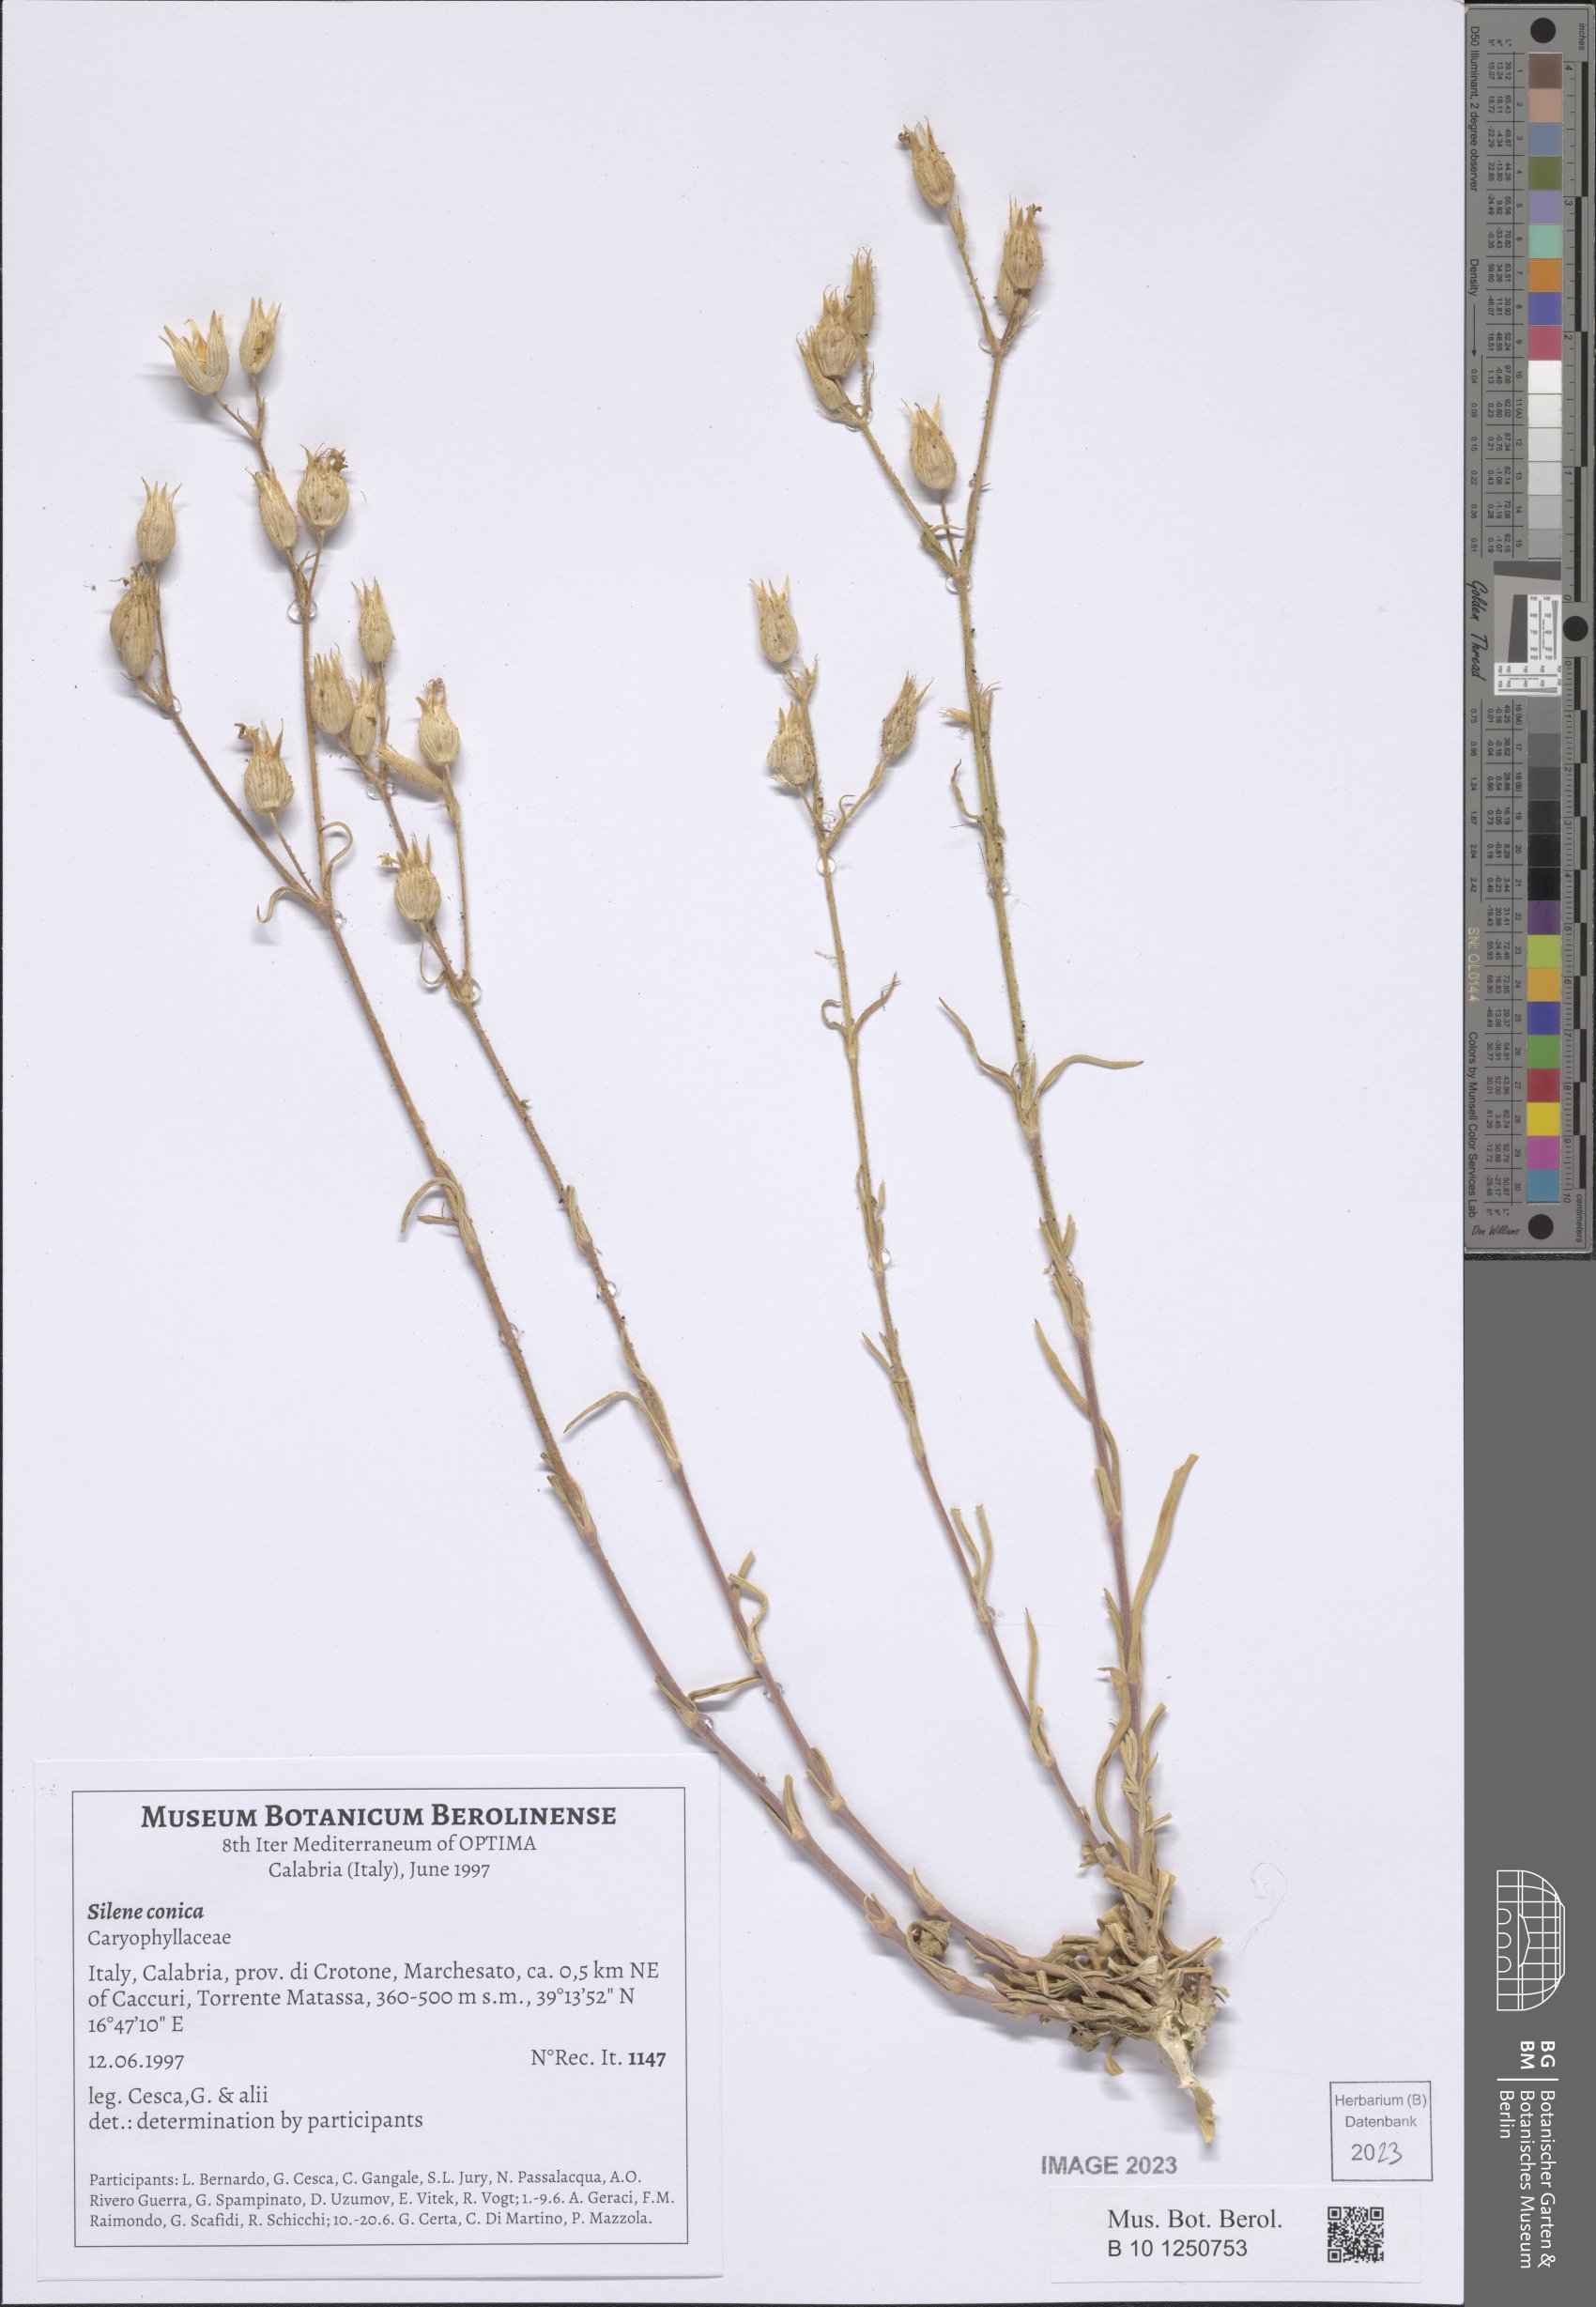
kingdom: Plantae
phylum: Tracheophyta
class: Magnoliopsida
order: Caryophyllales
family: Caryophyllaceae
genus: Silene
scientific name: Silene conica
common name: Sand catchfly
